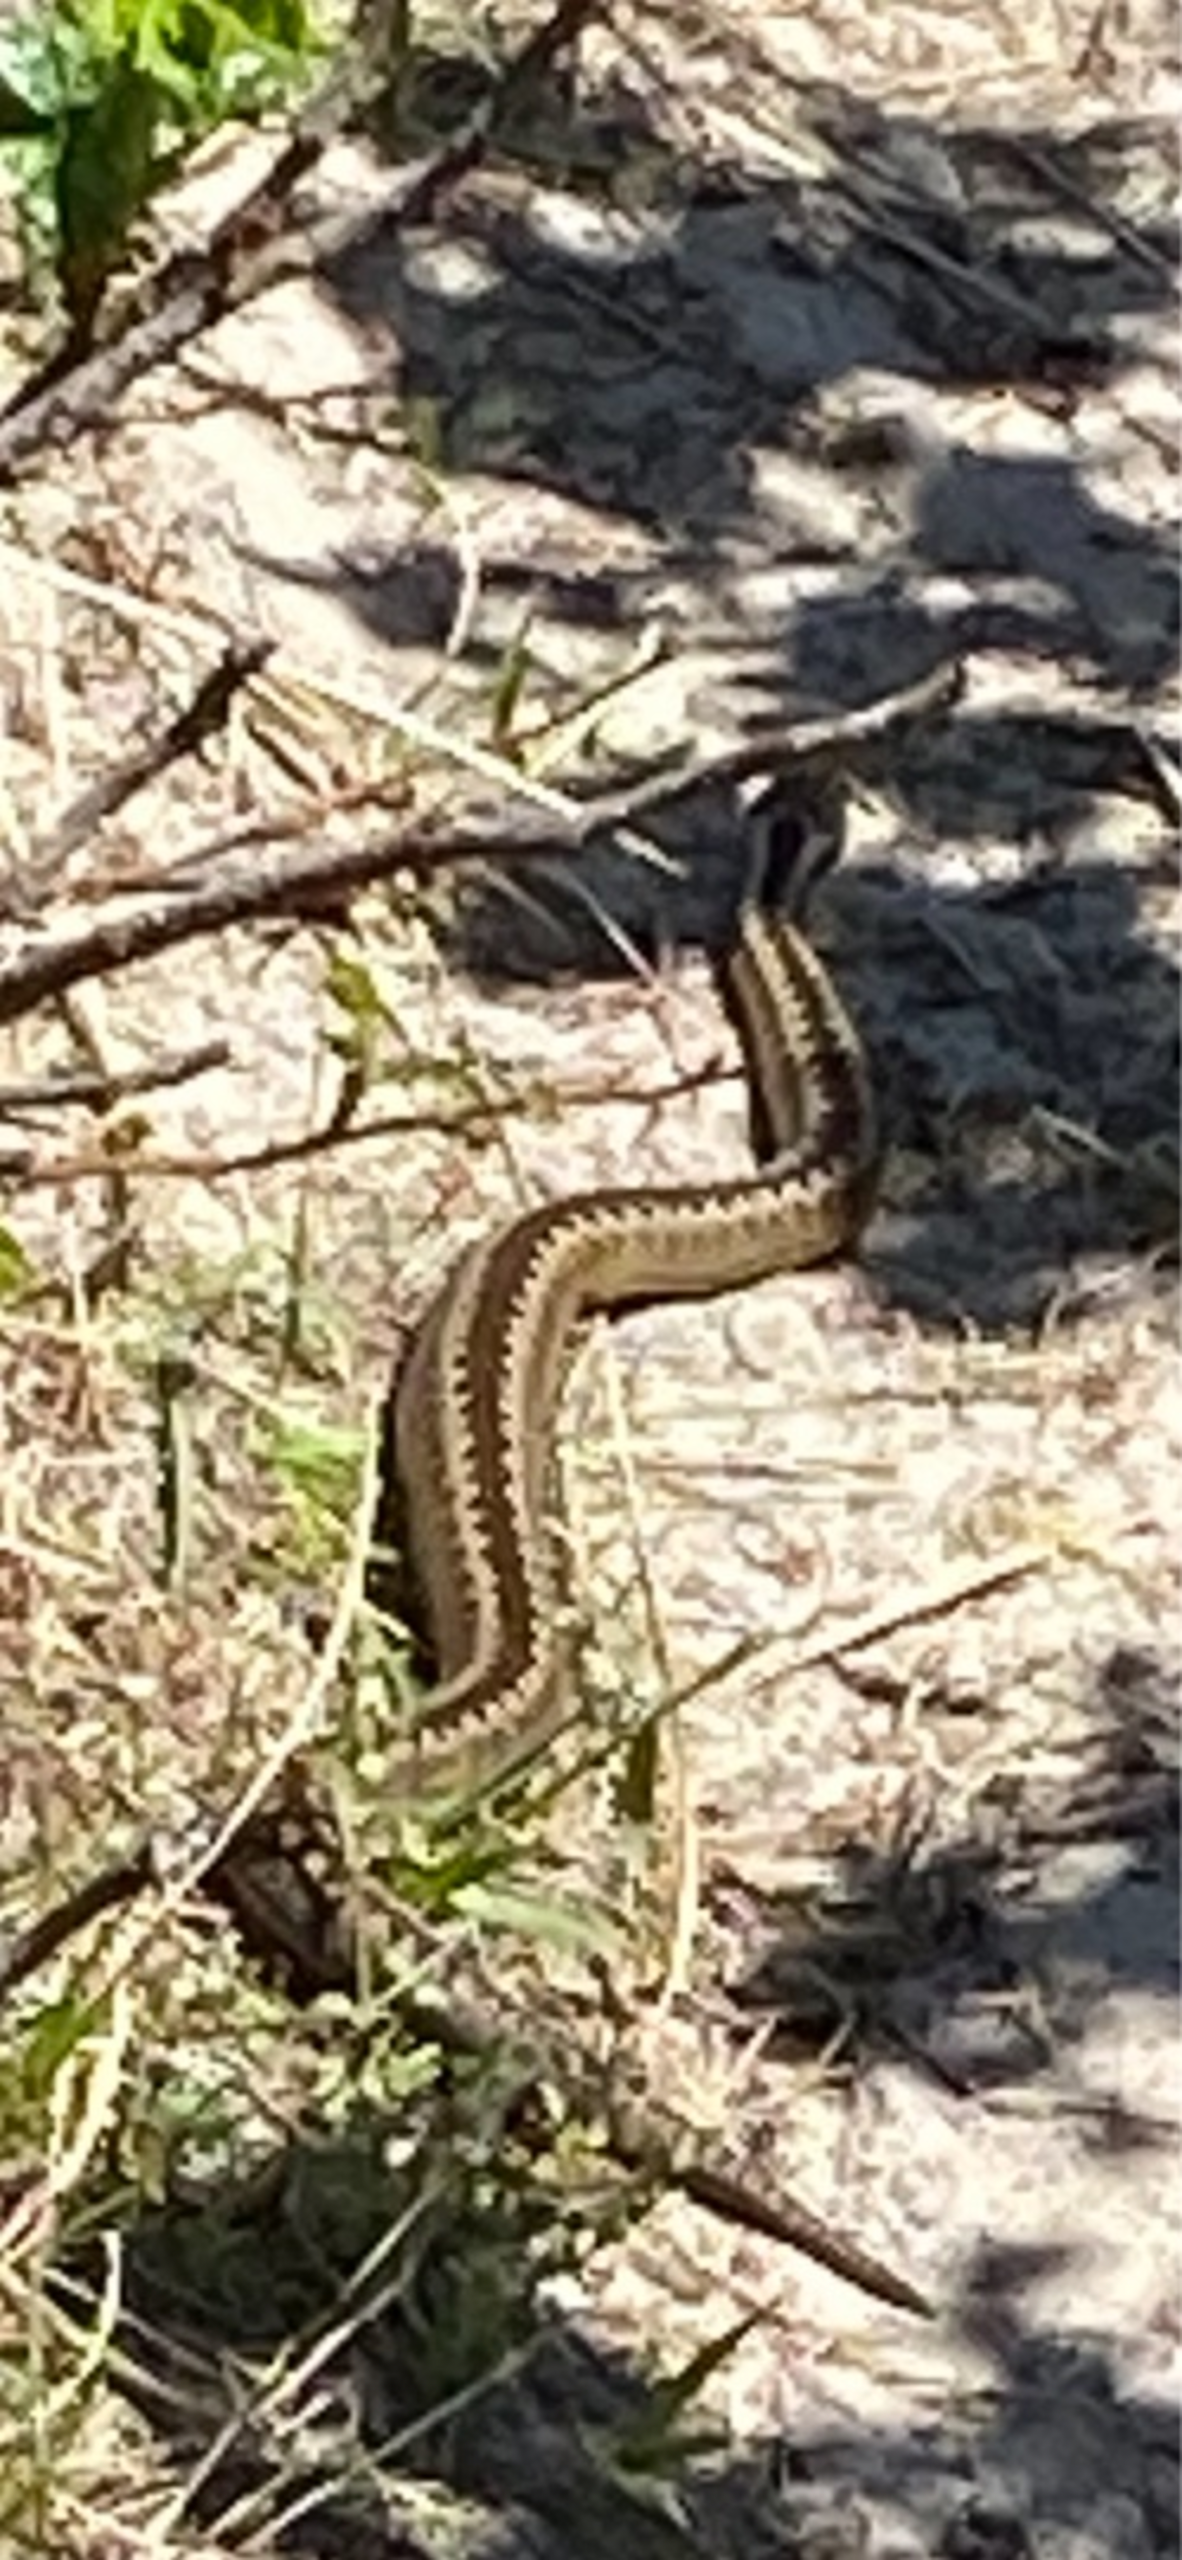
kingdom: Animalia
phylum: Chordata
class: Squamata
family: Viperidae
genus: Vipera
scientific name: Vipera berus
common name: Hugorm
